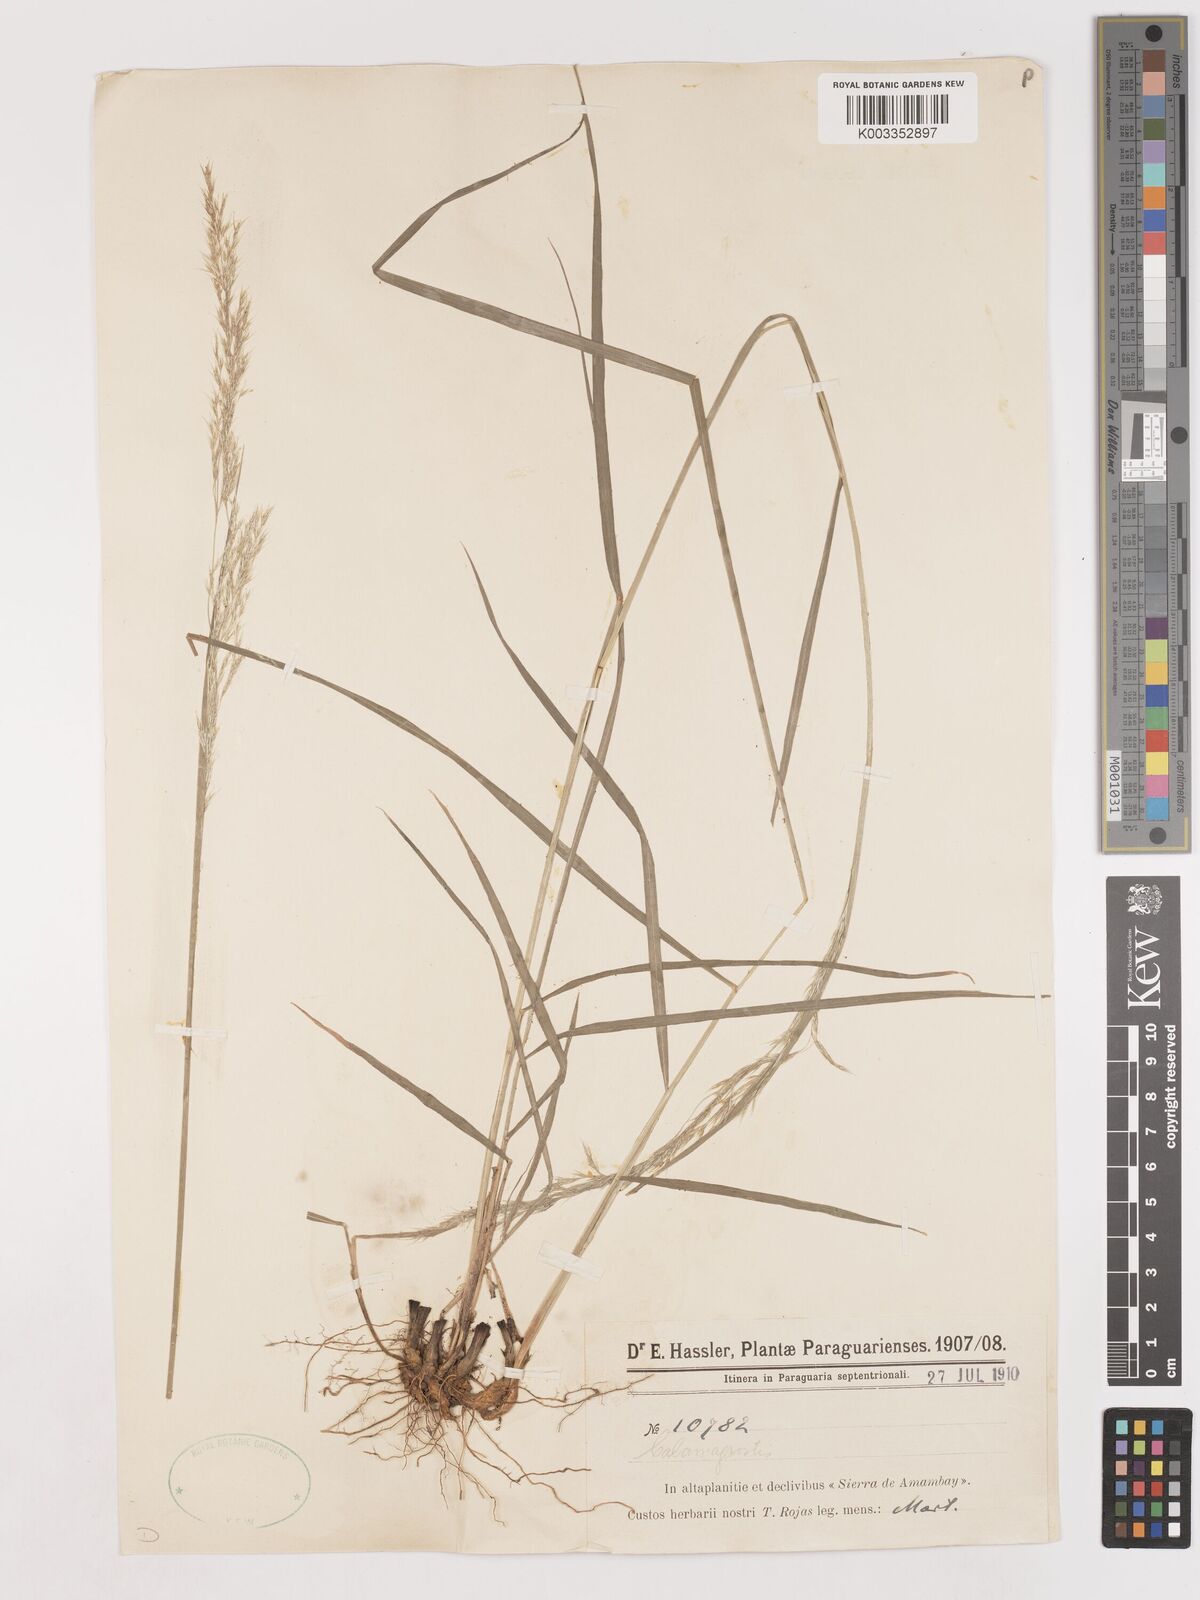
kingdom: Plantae
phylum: Tracheophyta
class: Liliopsida
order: Poales
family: Poaceae
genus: Calamagrostis
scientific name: Calamagrostis
